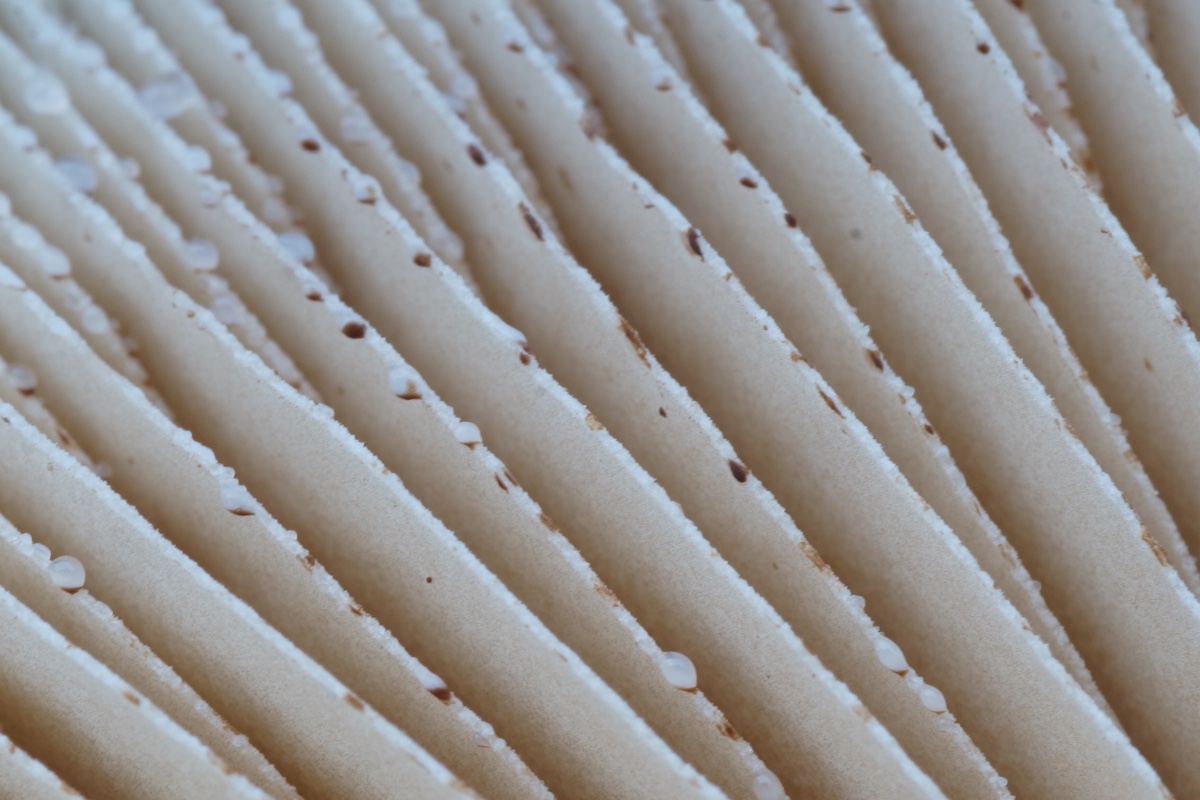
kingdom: Fungi
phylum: Basidiomycota
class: Agaricomycetes
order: Agaricales
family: Hymenogastraceae
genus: Hebeloma
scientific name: Hebeloma
